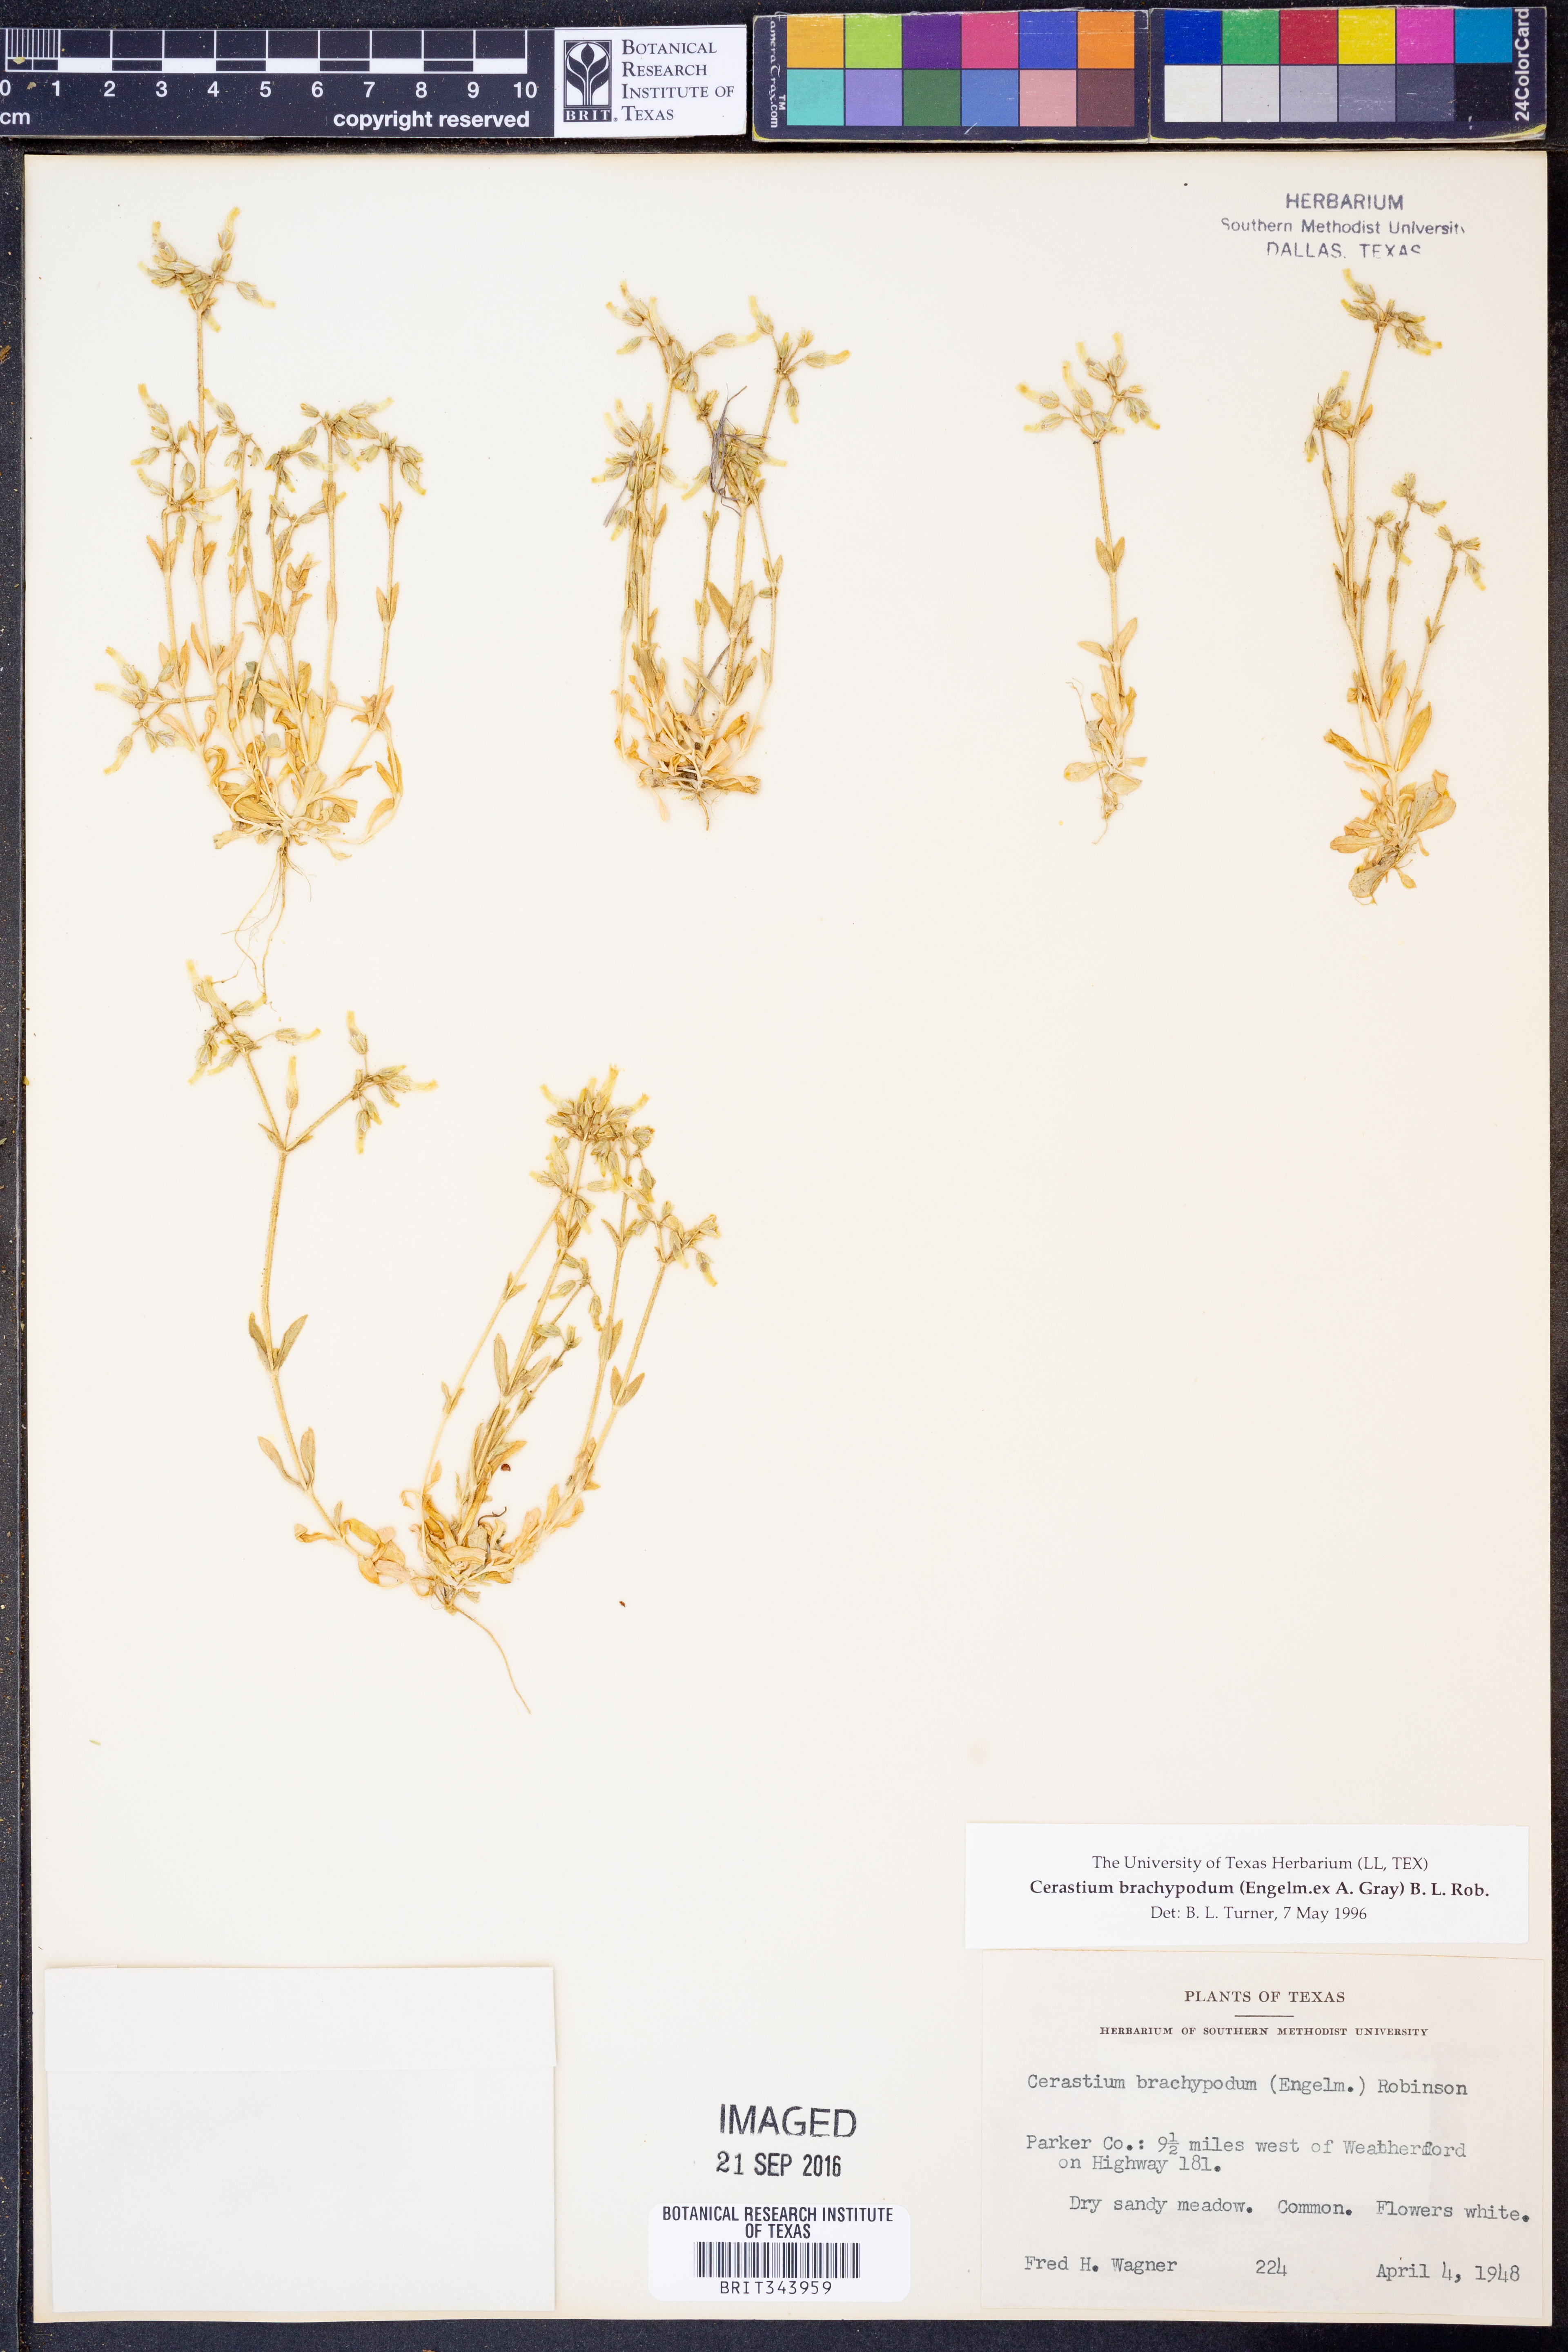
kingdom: Plantae
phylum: Tracheophyta
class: Magnoliopsida
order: Caryophyllales
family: Caryophyllaceae
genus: Cerastium
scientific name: Cerastium brachypodum
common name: Short-pedicelled nodding chickweed
